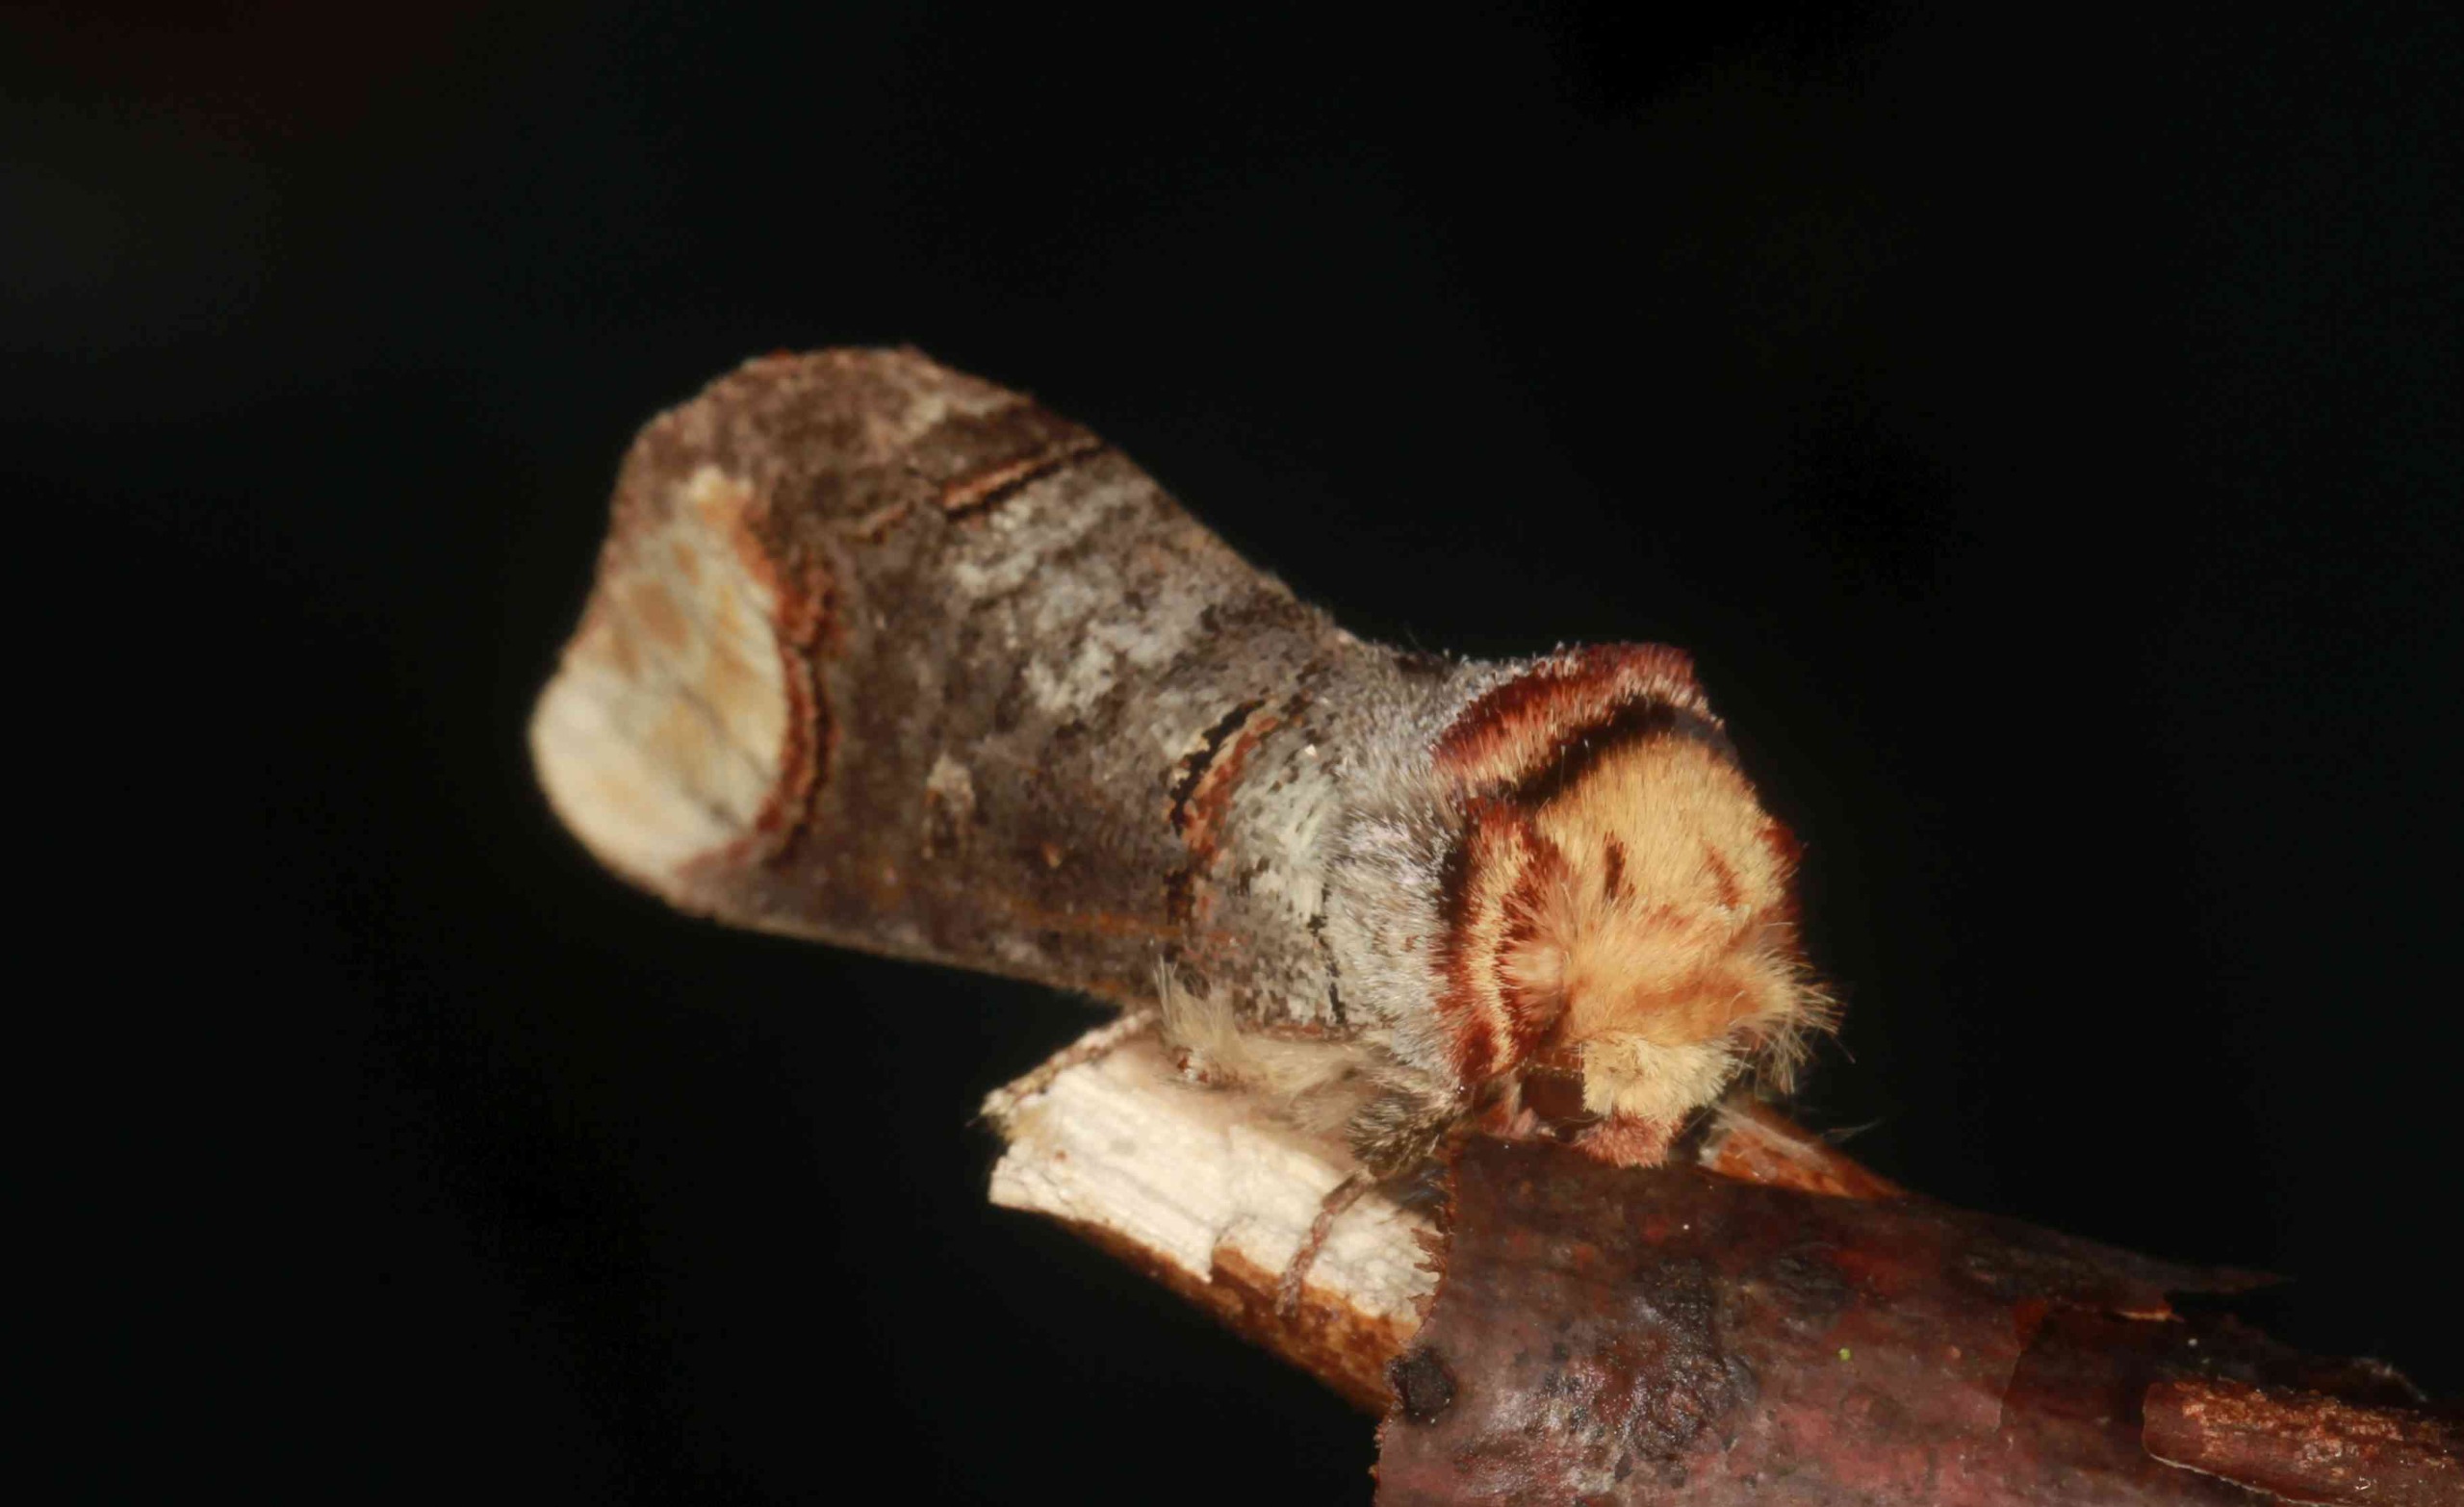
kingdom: Animalia
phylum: Arthropoda
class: Insecta
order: Lepidoptera
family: Notodontidae
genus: Phalera
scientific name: Phalera bucephala
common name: Måneplet
